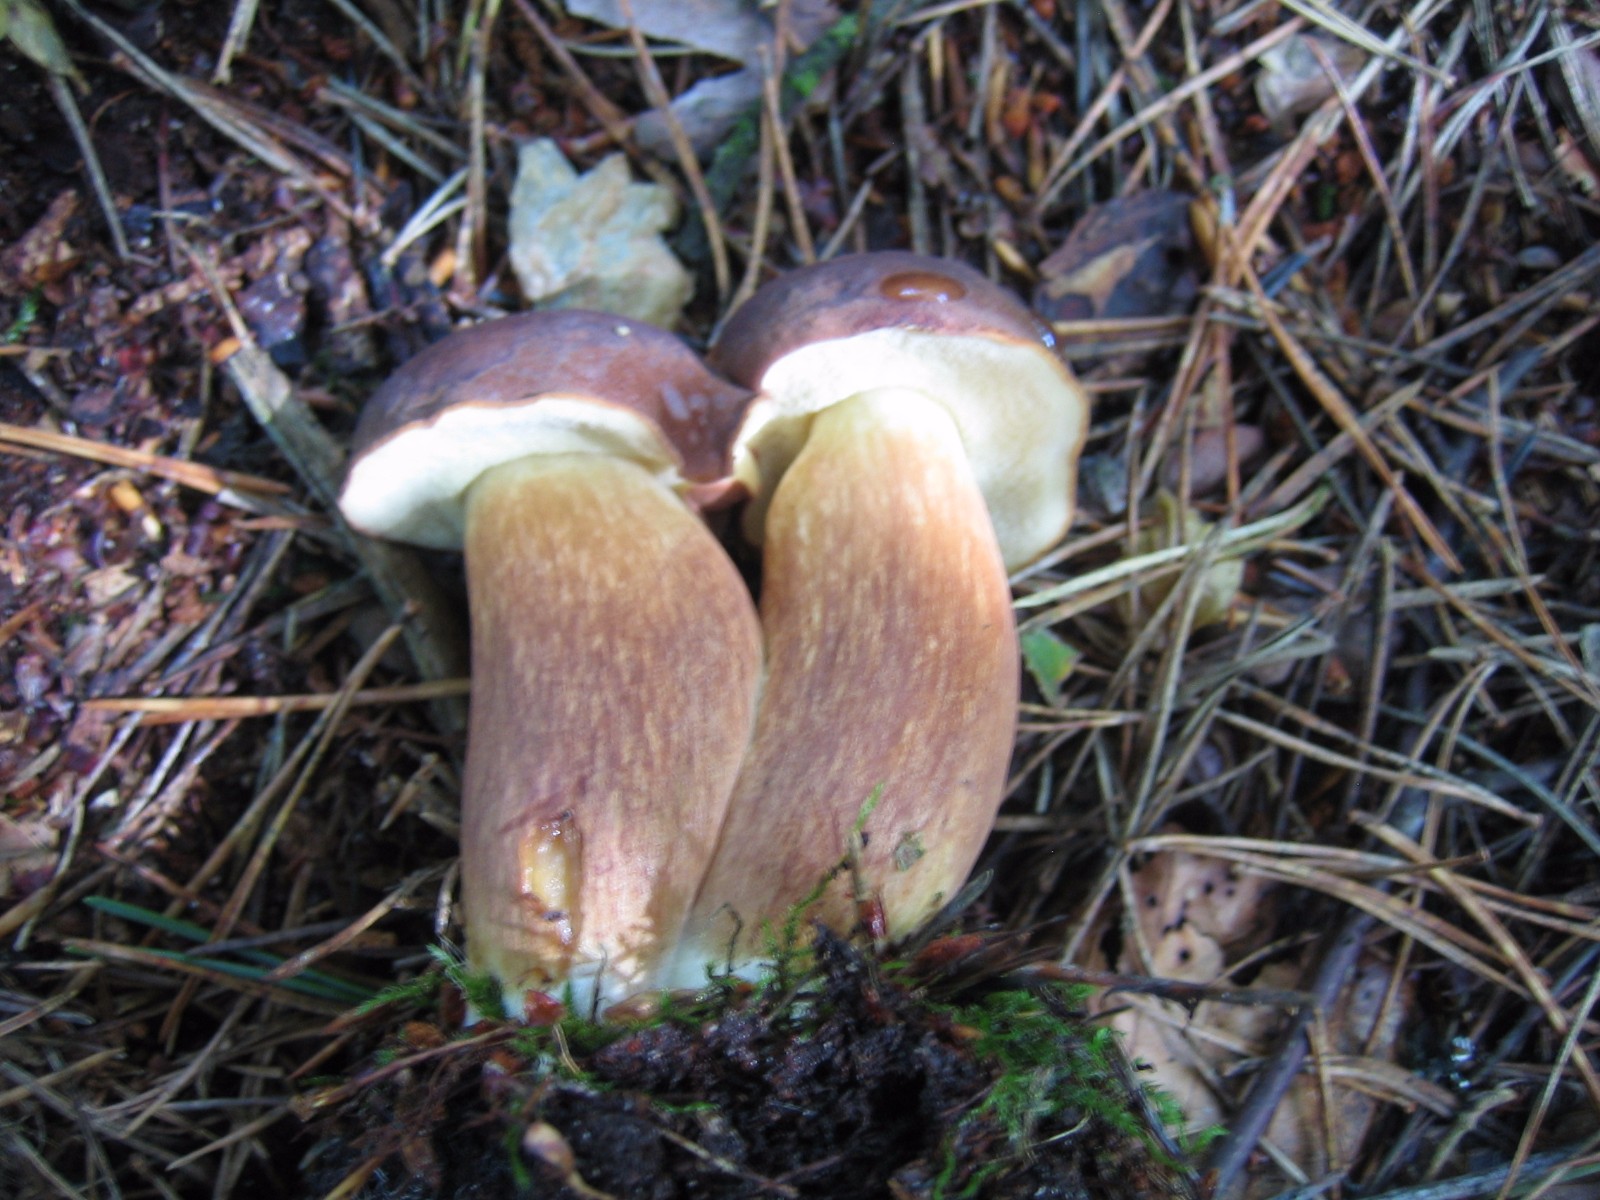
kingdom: Fungi
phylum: Basidiomycota
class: Agaricomycetes
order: Boletales
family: Boletaceae
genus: Imleria
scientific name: Imleria badia
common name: brunstokket rørhat
